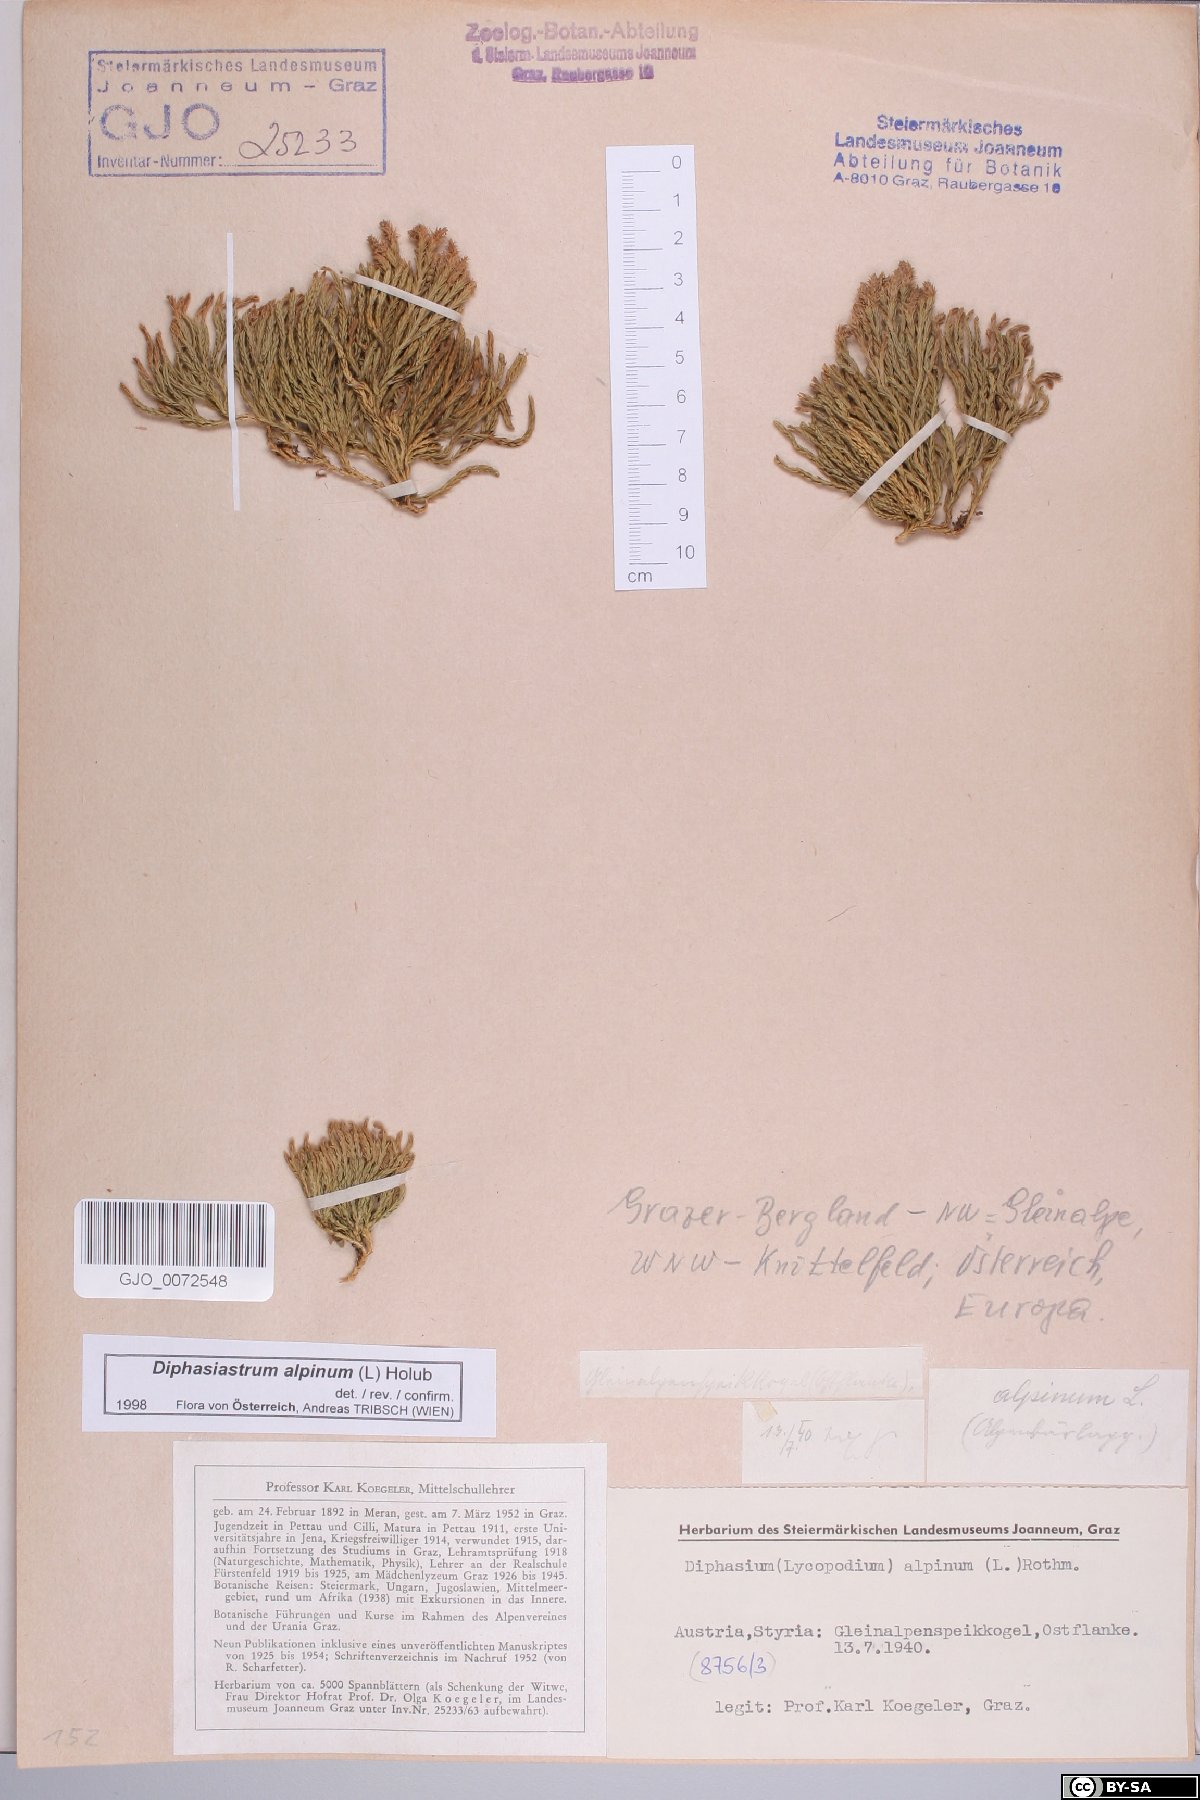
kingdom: Plantae
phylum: Tracheophyta
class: Lycopodiopsida
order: Lycopodiales
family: Lycopodiaceae
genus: Diphasiastrum
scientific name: Diphasiastrum alpinum
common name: Alpine clubmoss
